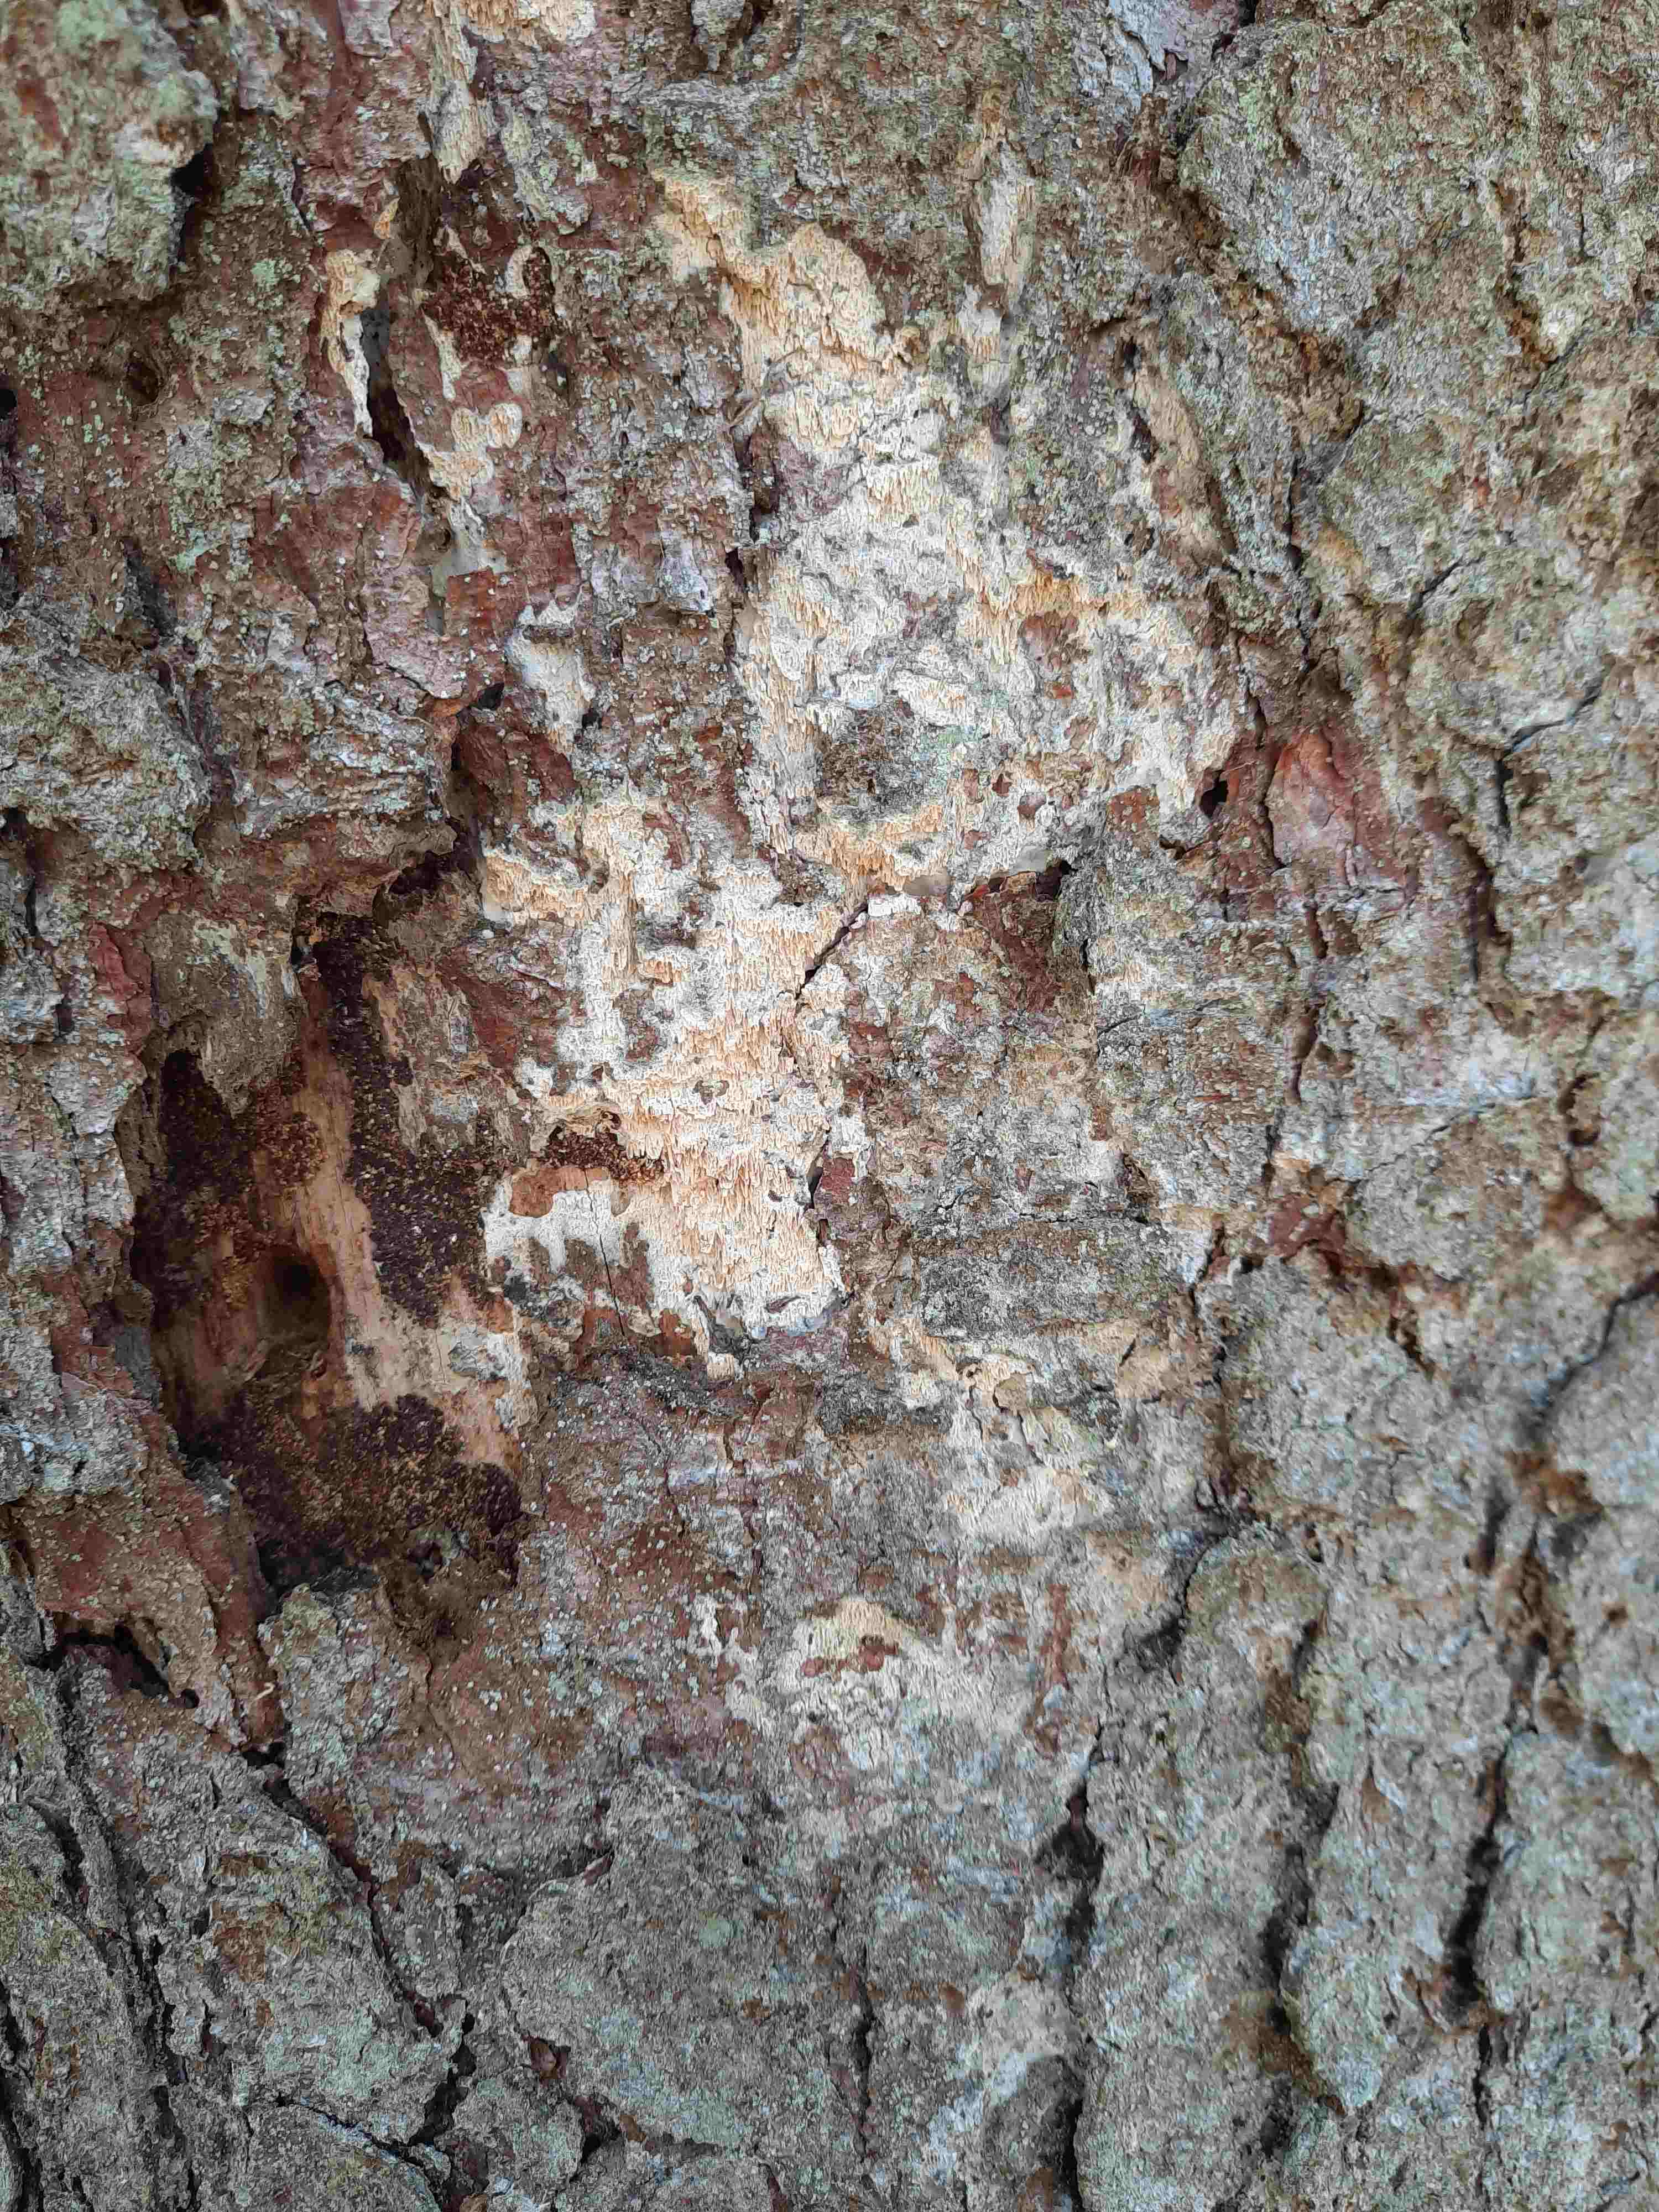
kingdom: Fungi
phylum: Basidiomycota
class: Agaricomycetes
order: Hymenochaetales
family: Schizoporaceae
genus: Xylodon
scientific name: Xylodon
